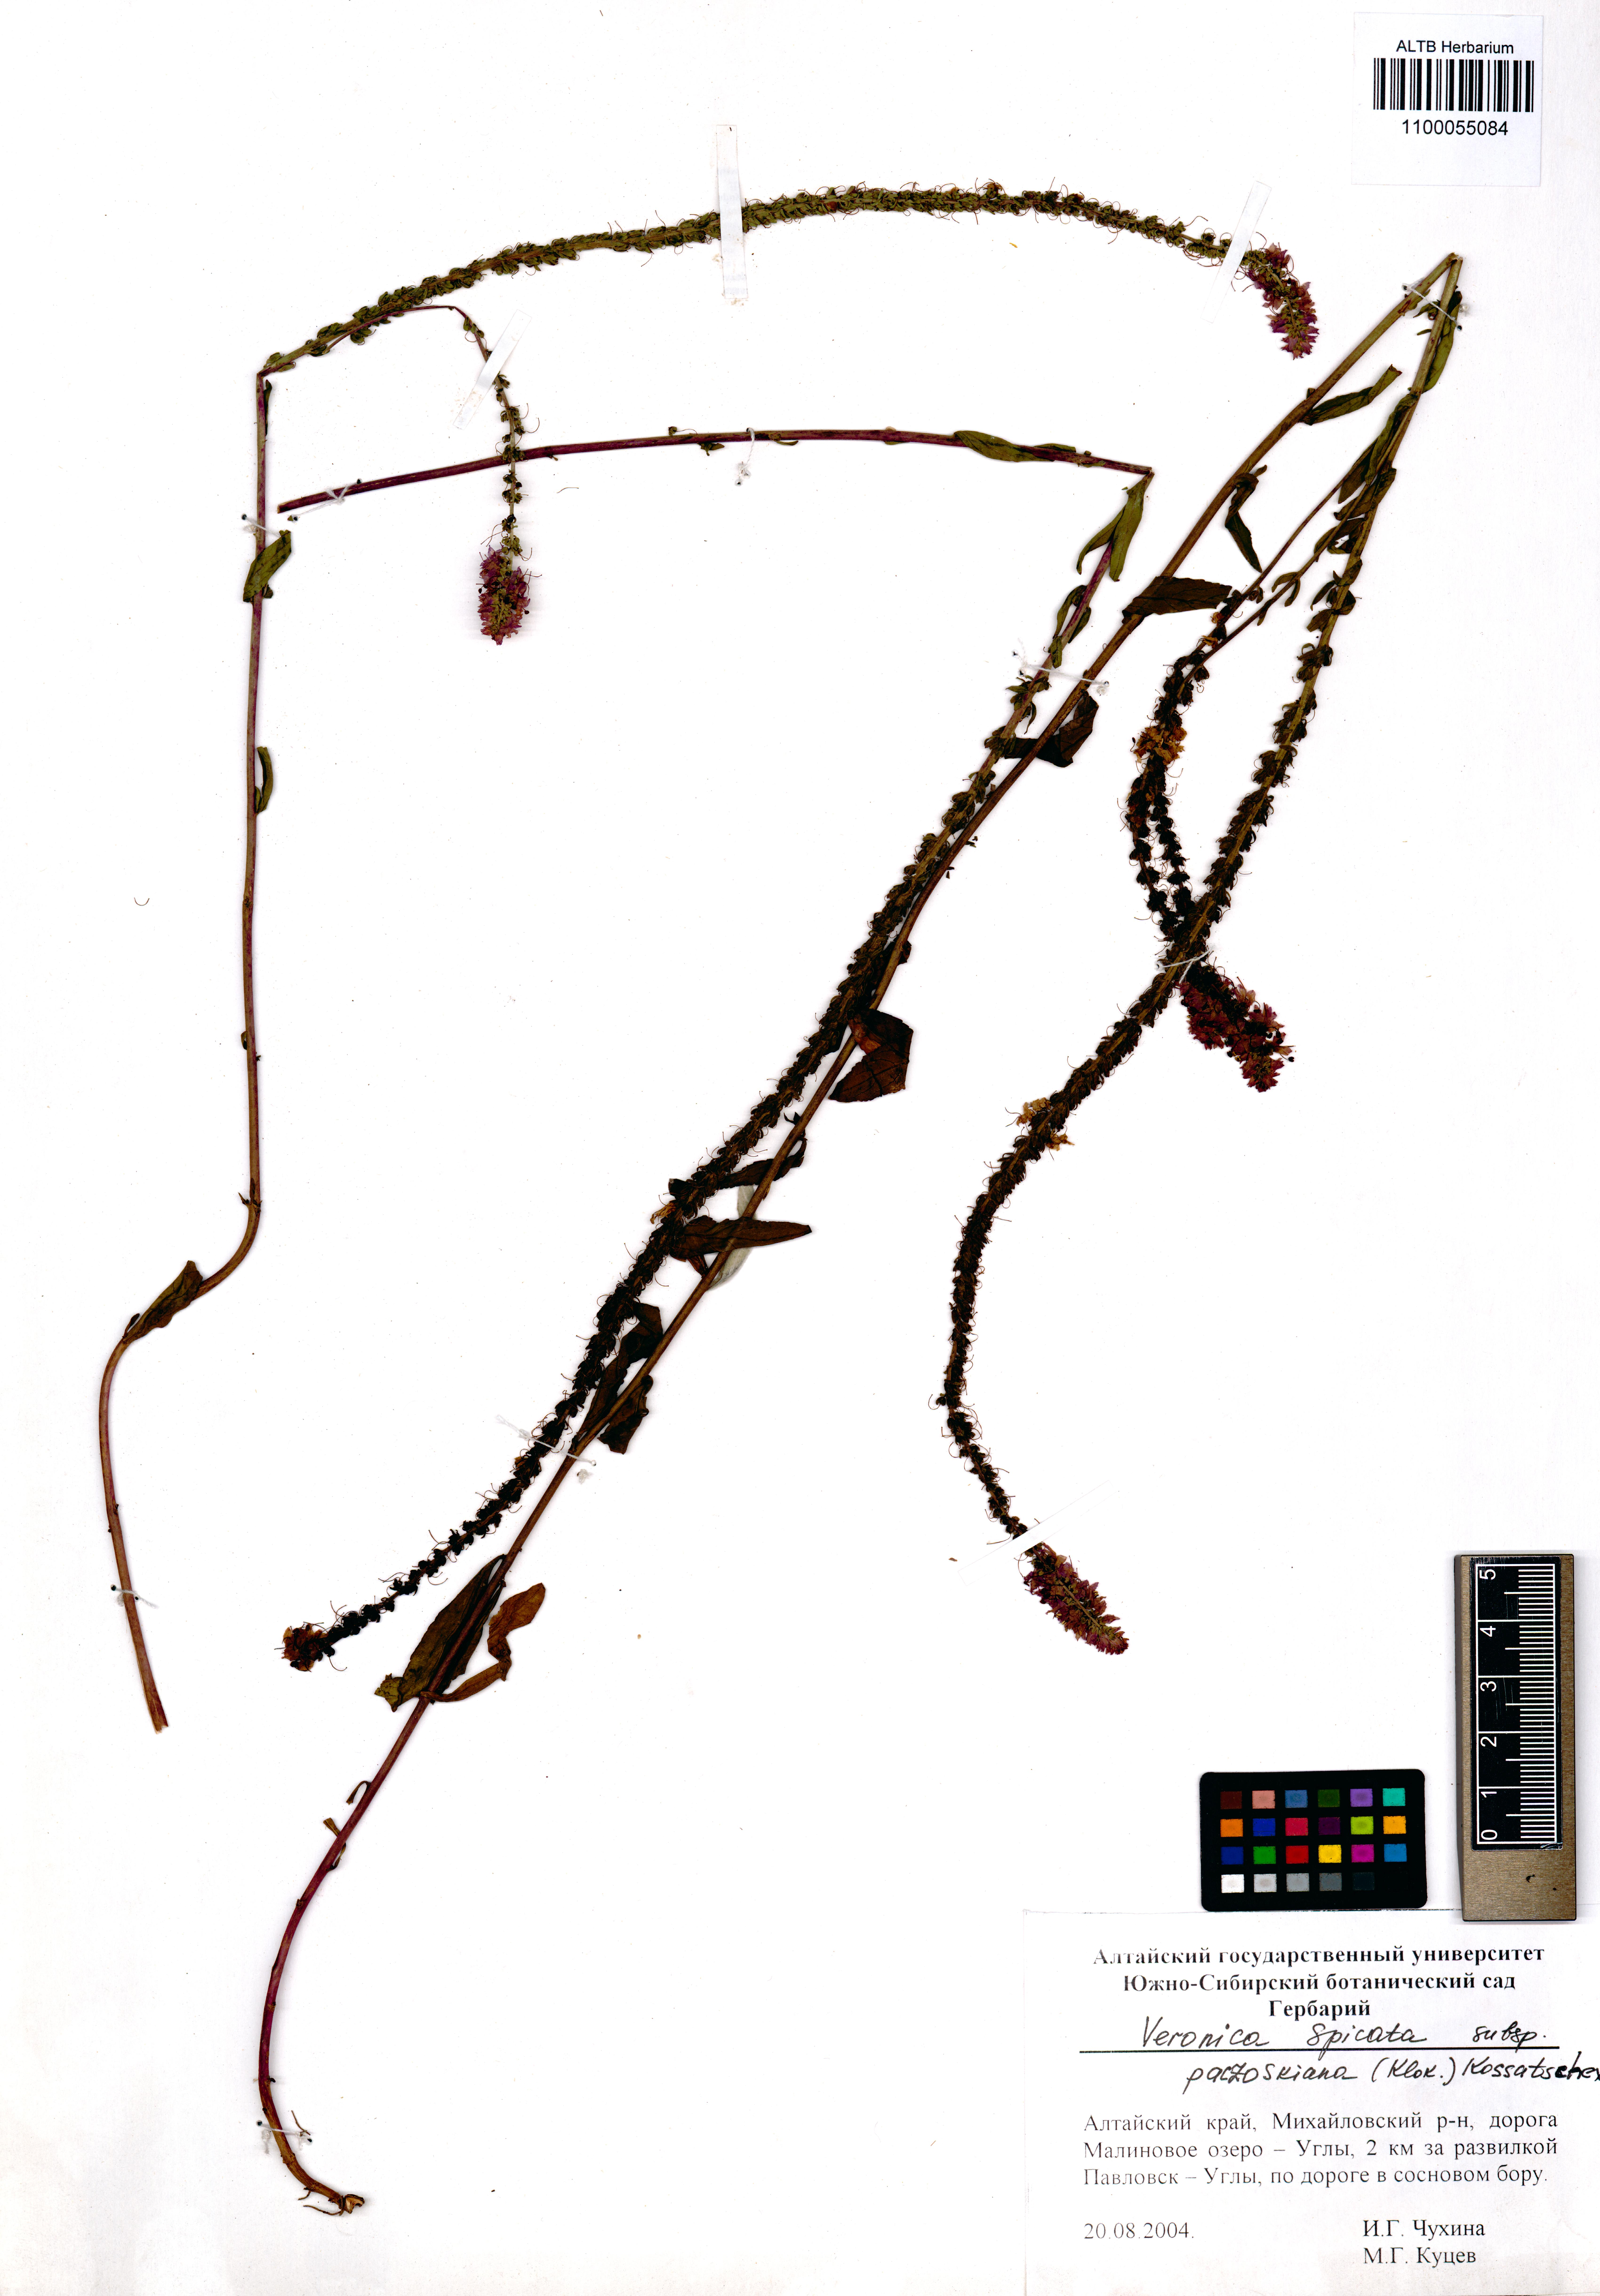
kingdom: Plantae
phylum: Tracheophyta
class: Magnoliopsida
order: Lamiales
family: Plantaginaceae
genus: Veronica
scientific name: Veronica spicata
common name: Spiked speedwell
